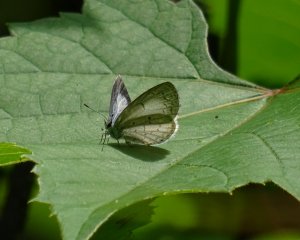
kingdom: Animalia
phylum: Arthropoda
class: Insecta
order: Lepidoptera
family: Lycaenidae
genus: Cyaniris
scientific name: Cyaniris neglecta
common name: Summer Azure
